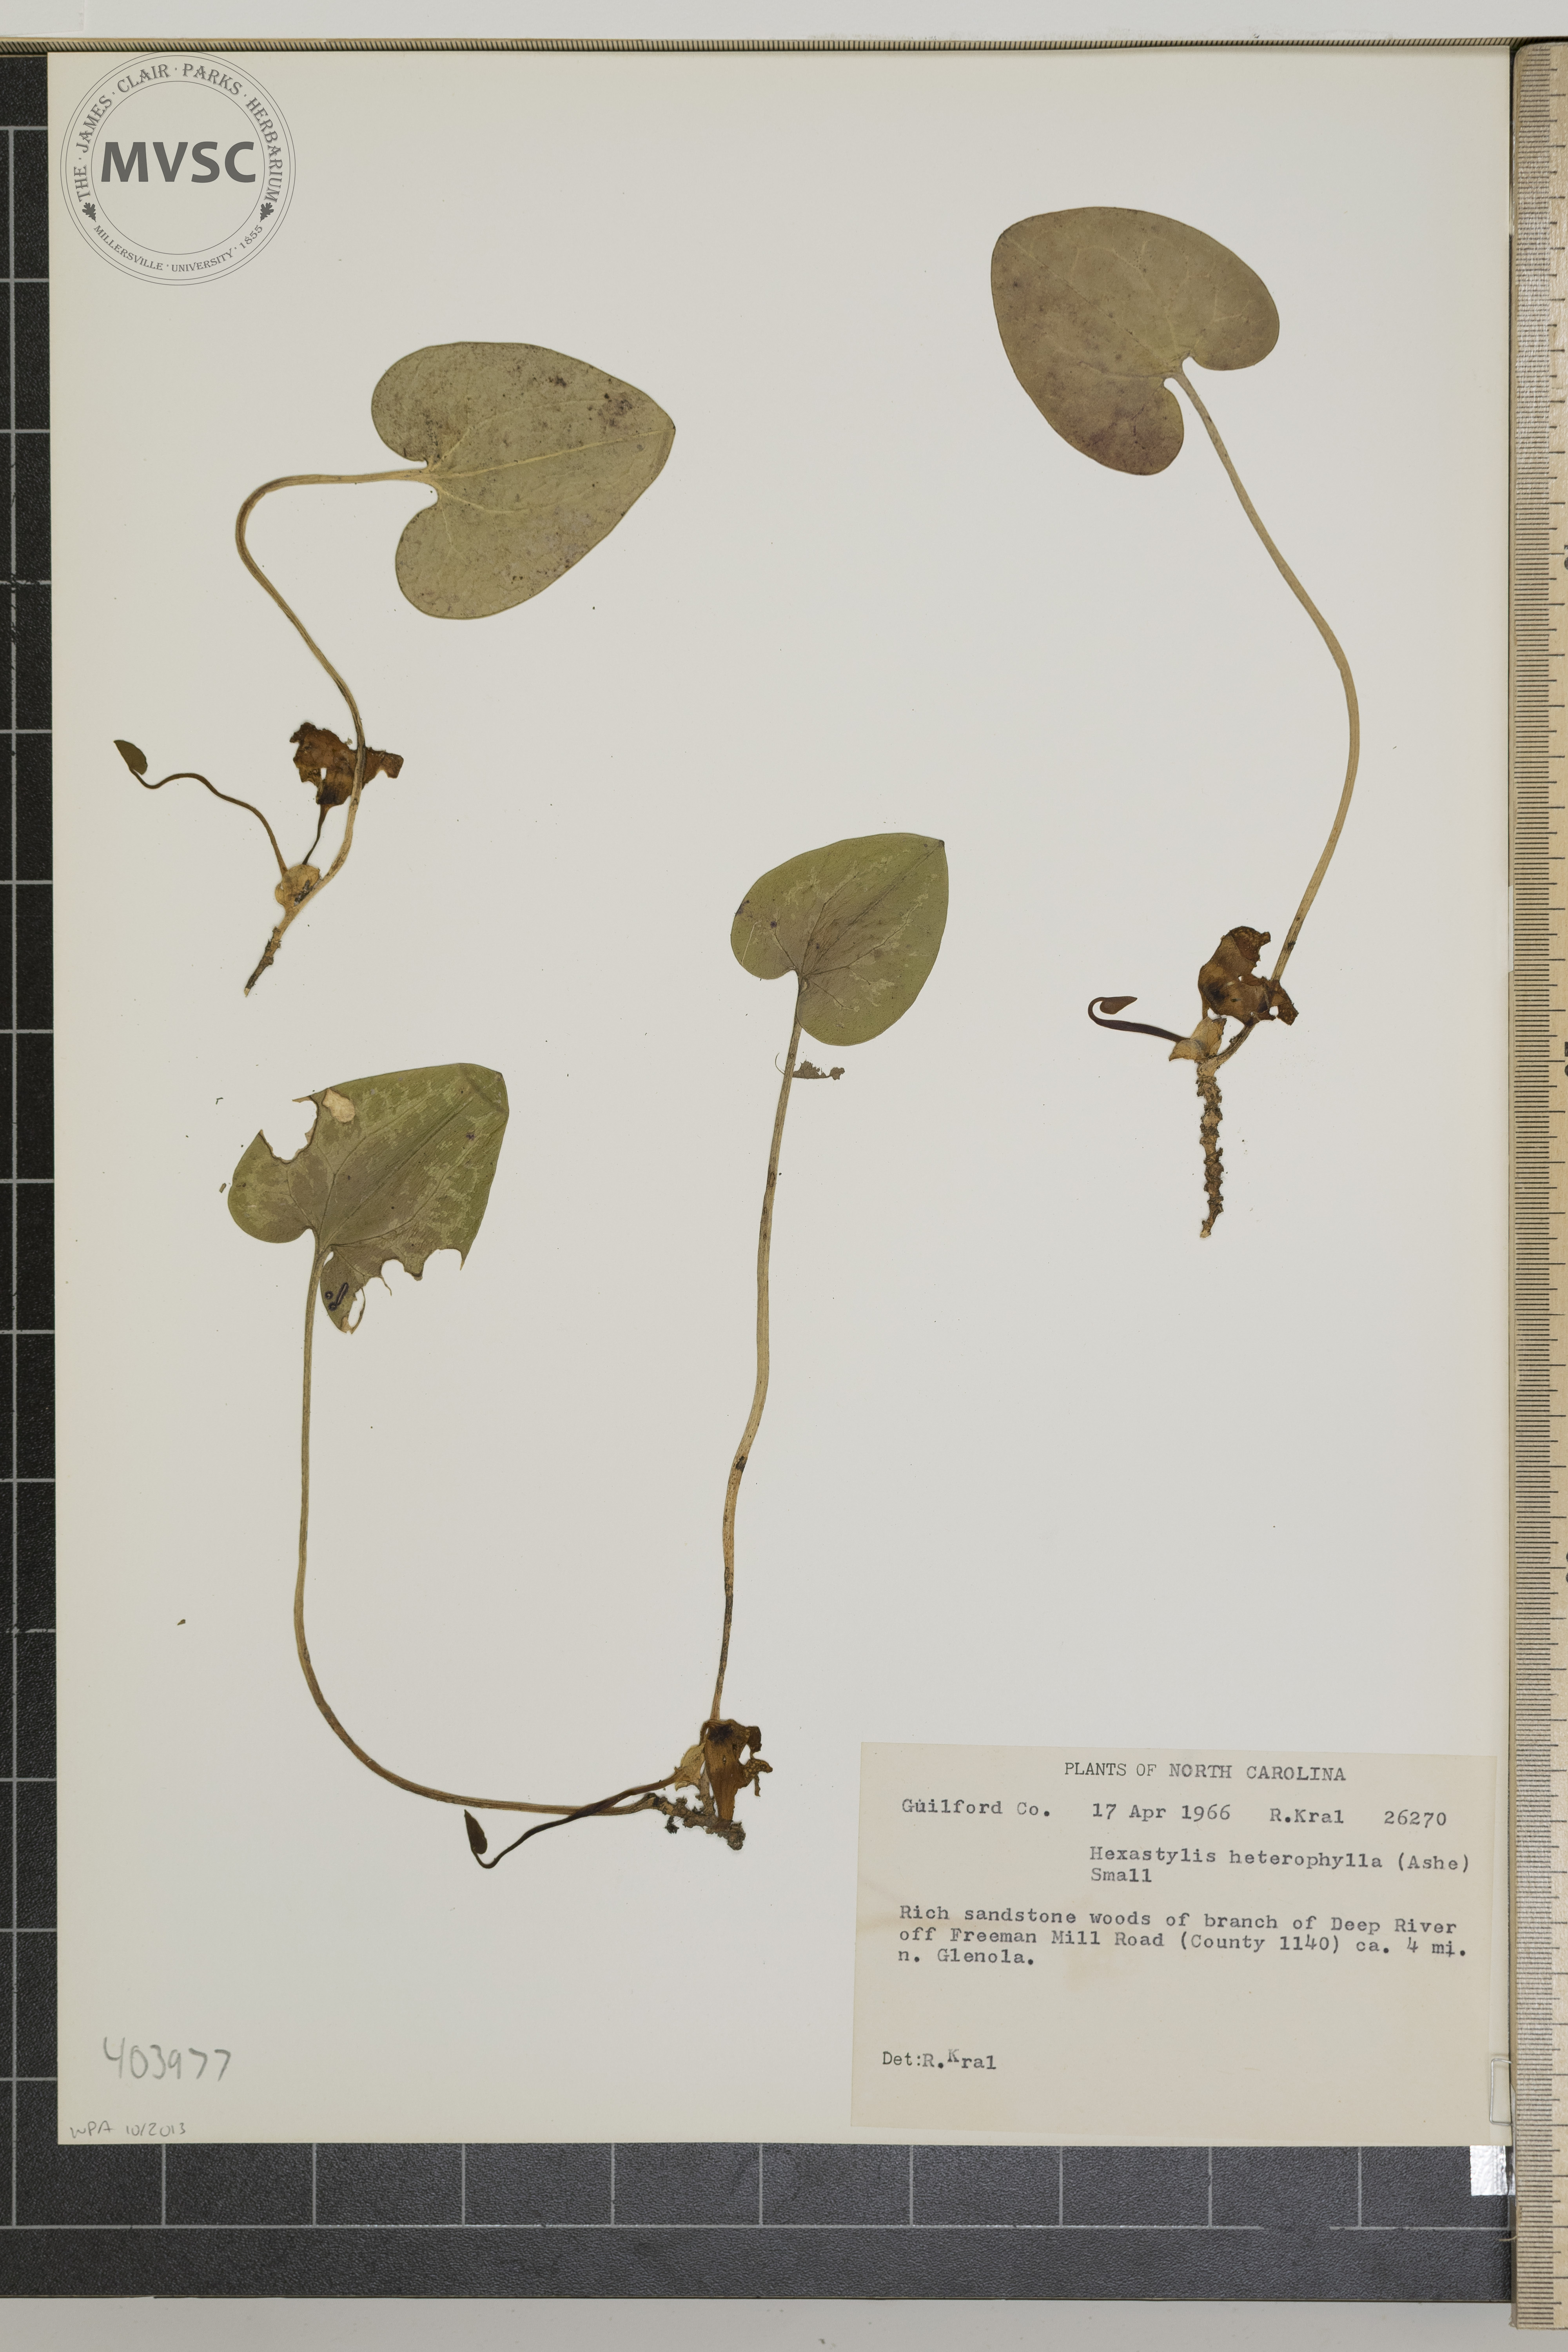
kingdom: Plantae
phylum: Tracheophyta
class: Magnoliopsida
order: Piperales
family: Aristolochiaceae
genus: Hexastylis
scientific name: Hexastylis heterophylla
